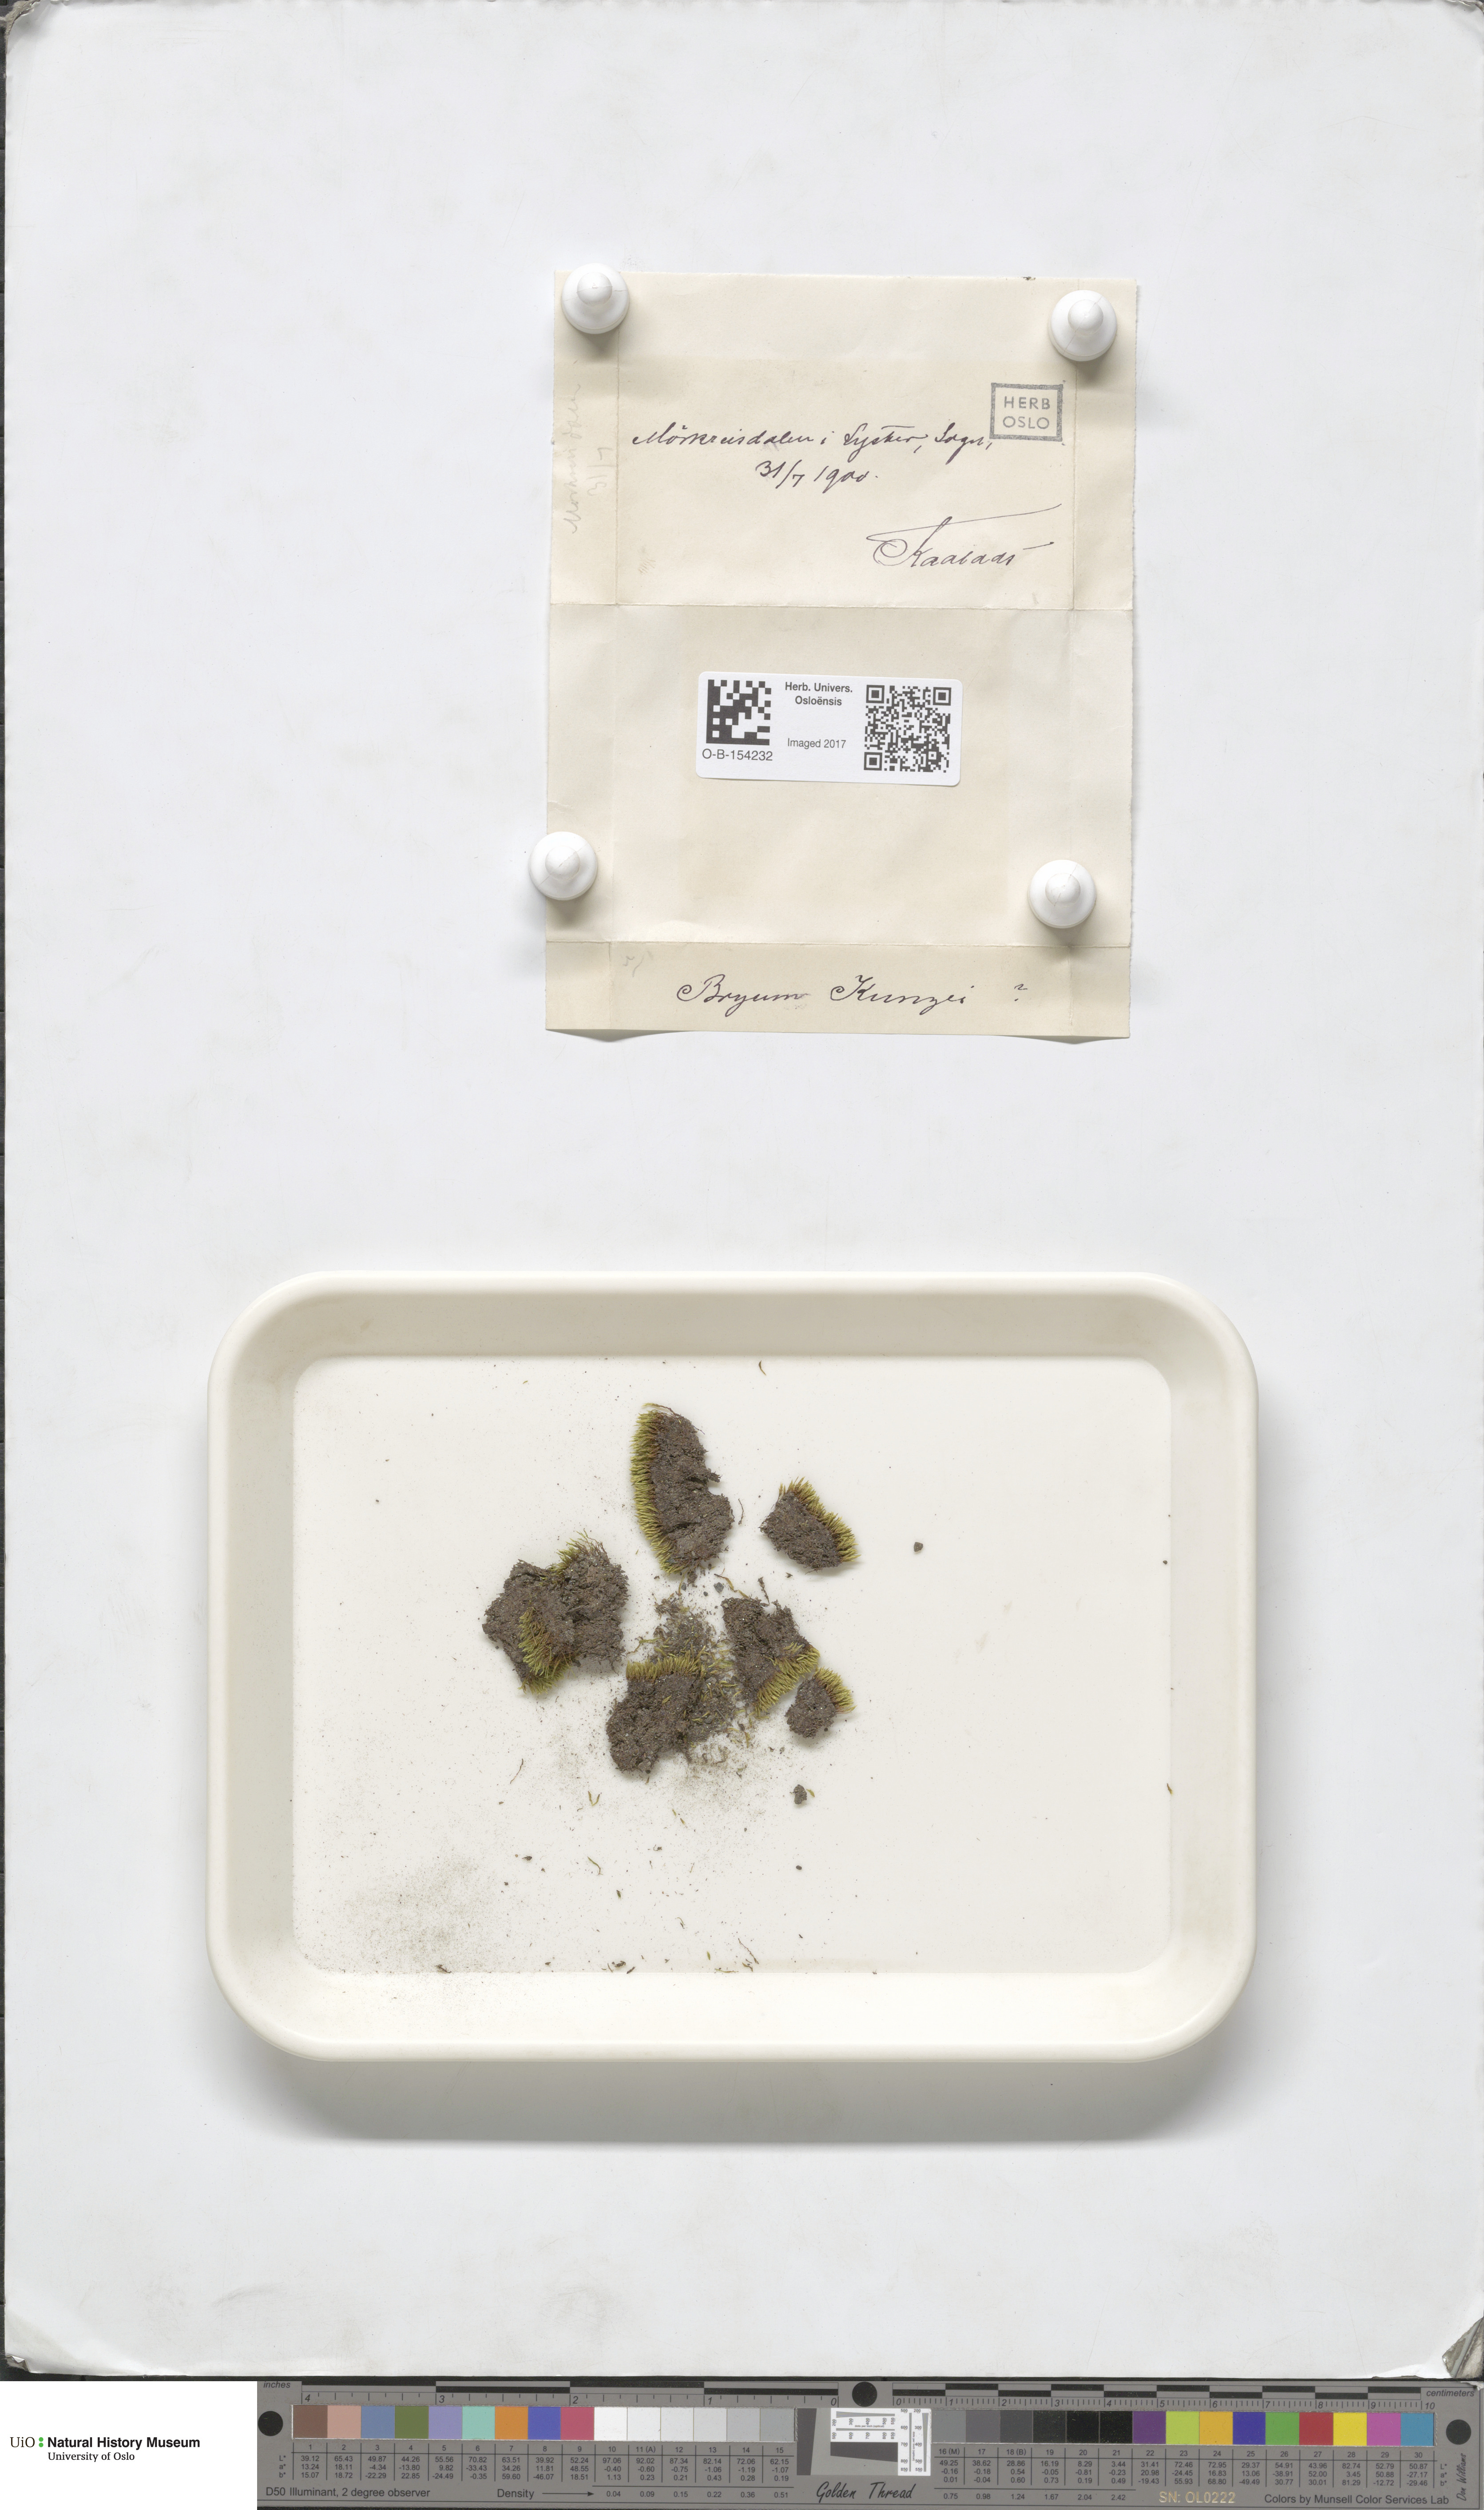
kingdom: Plantae
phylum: Bryophyta
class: Bryopsida
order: Bryales
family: Bryaceae
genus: Gemmabryum
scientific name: Gemmabryum caespiticium
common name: Handbell moss
